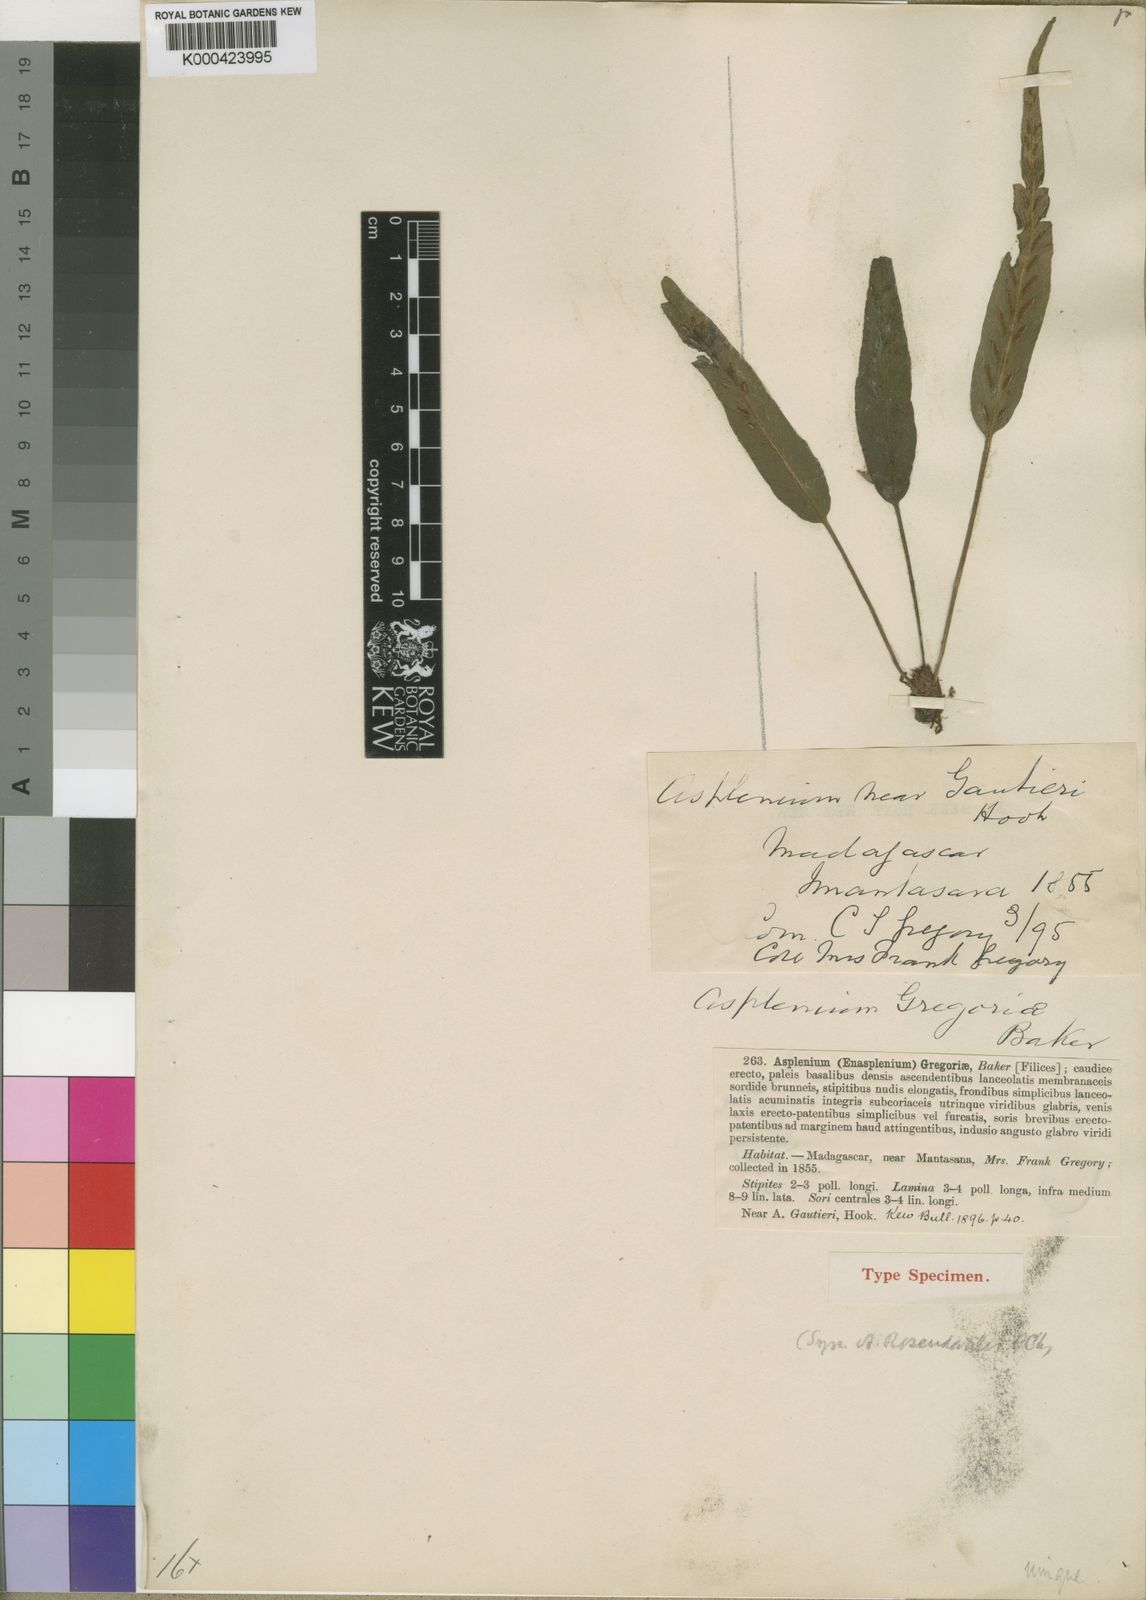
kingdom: Plantae
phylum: Tracheophyta
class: Polypodiopsida
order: Polypodiales
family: Aspleniaceae
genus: Asplenium
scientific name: Asplenium gregoriae
